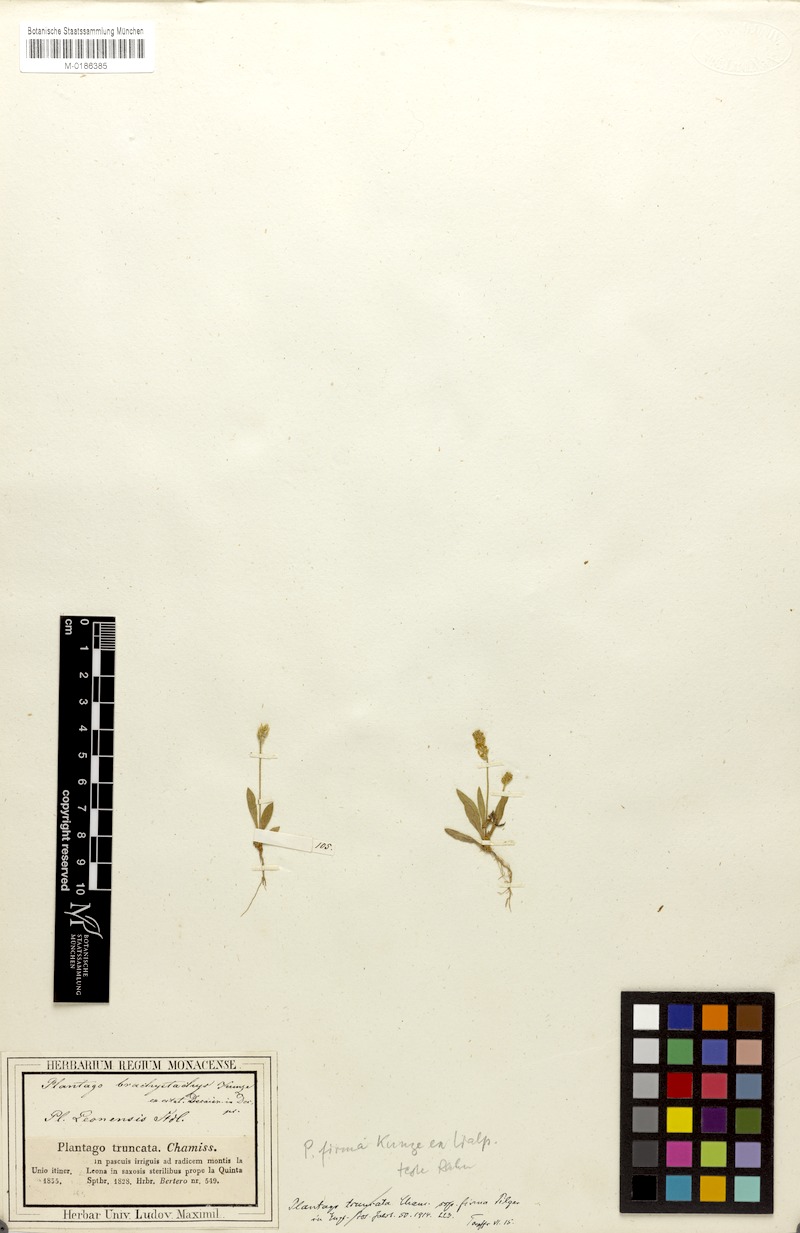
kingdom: Plantae
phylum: Tracheophyta
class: Magnoliopsida
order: Lamiales
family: Plantaginaceae
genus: Plantago
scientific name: Plantago firma
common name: Chilean plantain
